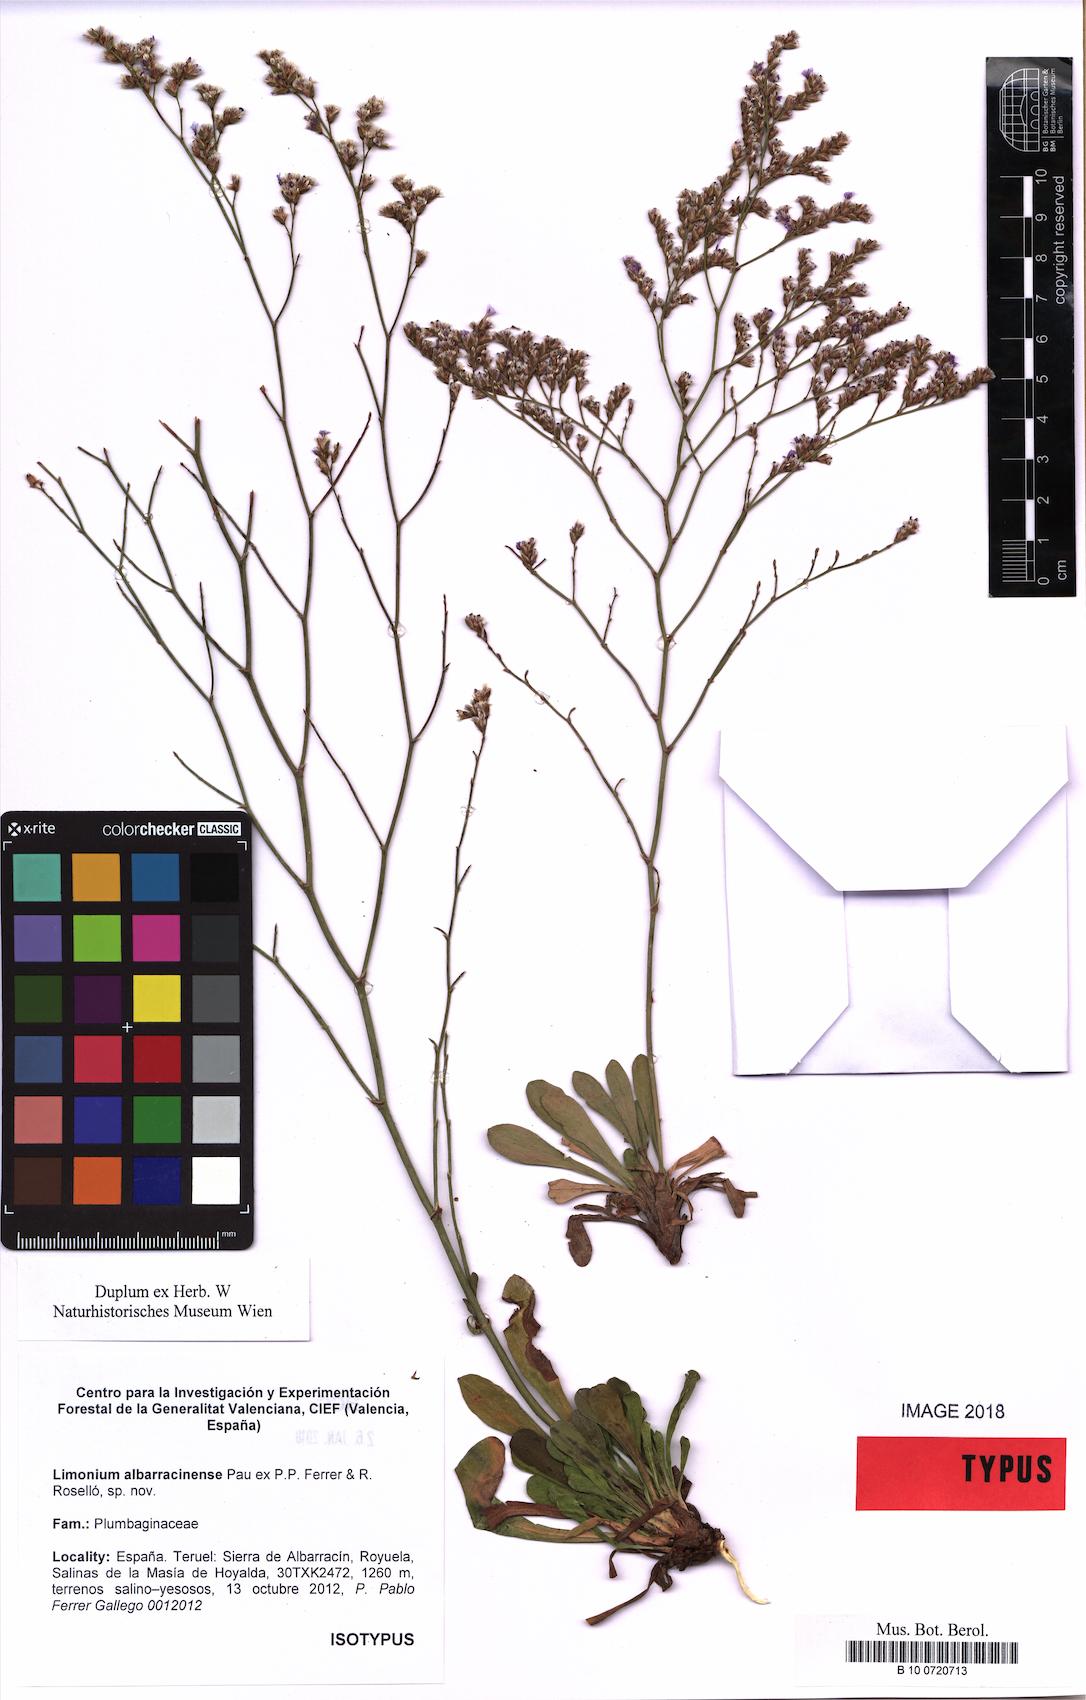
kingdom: Plantae
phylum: Tracheophyta
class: Magnoliopsida
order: Caryophyllales
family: Plumbaginaceae
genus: Limonium
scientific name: Limonium albarracinense
